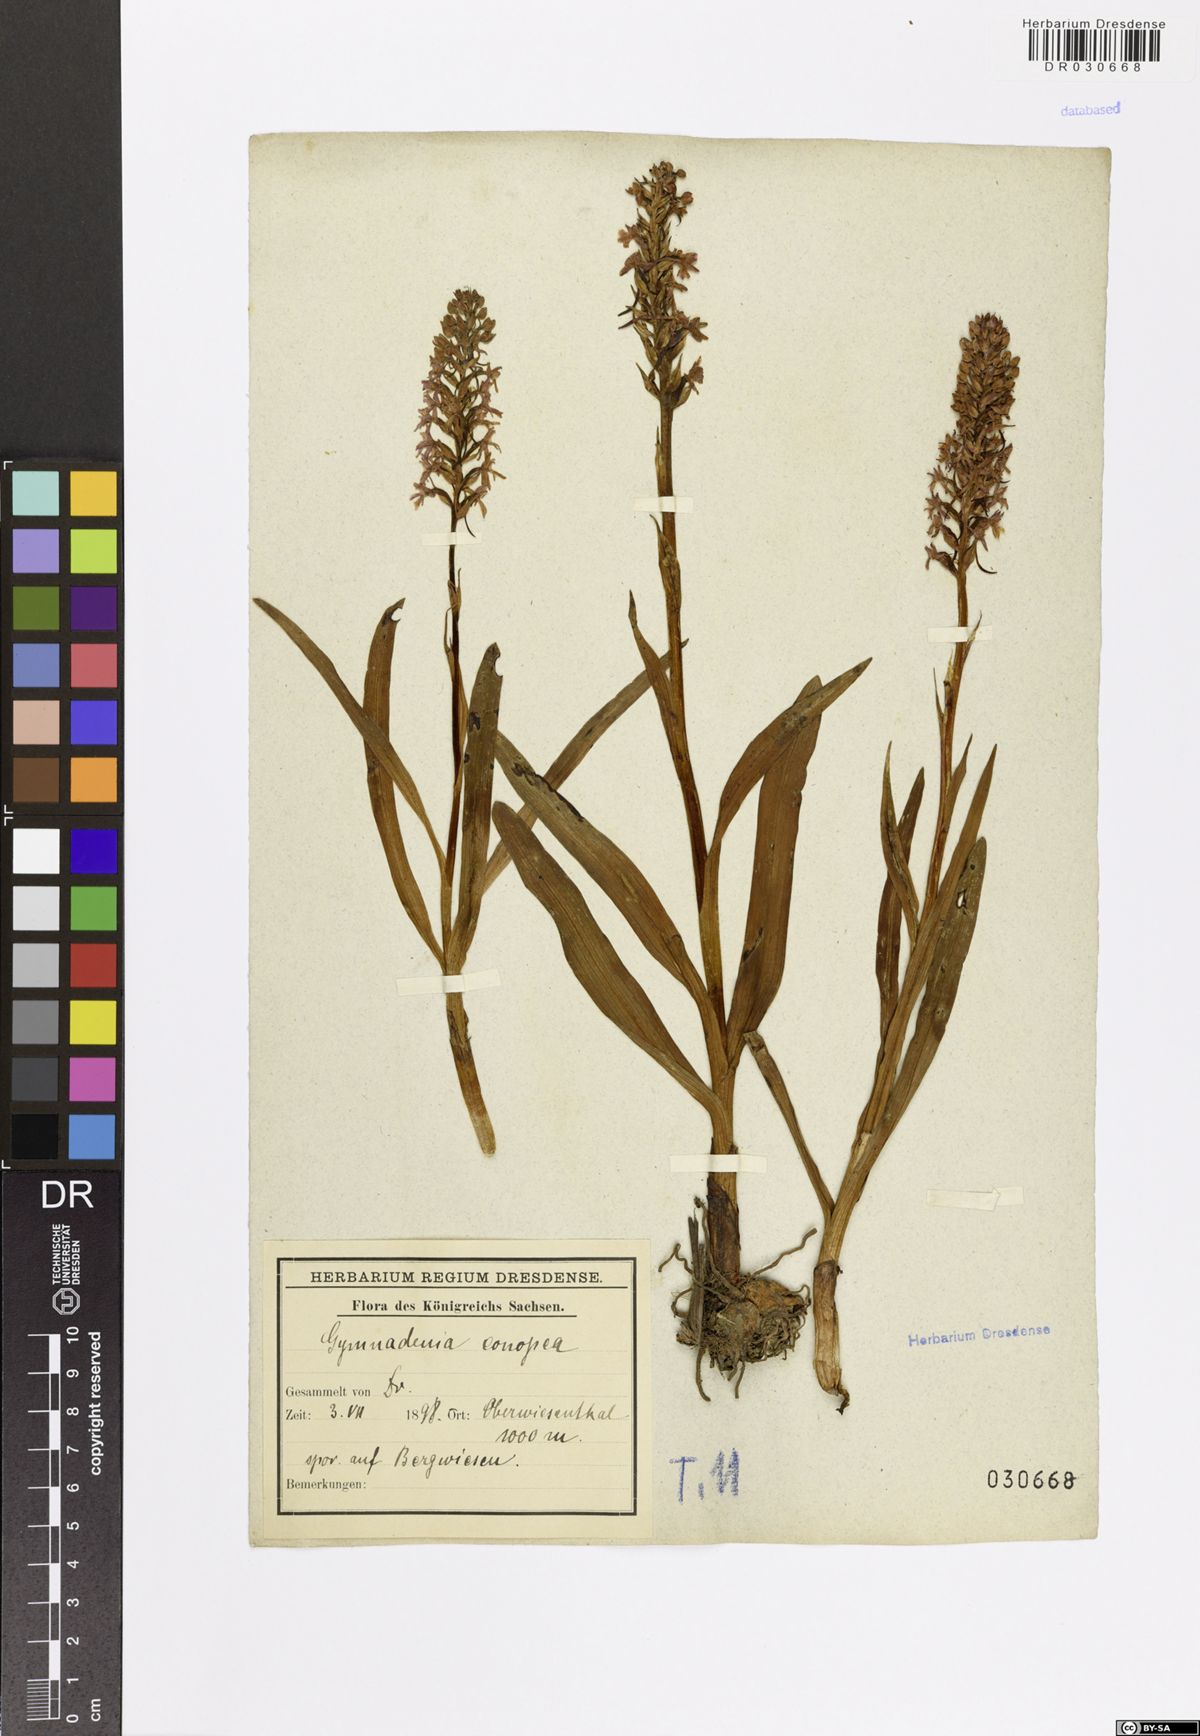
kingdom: Plantae
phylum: Tracheophyta
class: Liliopsida
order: Asparagales
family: Orchidaceae
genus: Gymnadenia
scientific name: Gymnadenia conopsea
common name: Fragrant orchid
